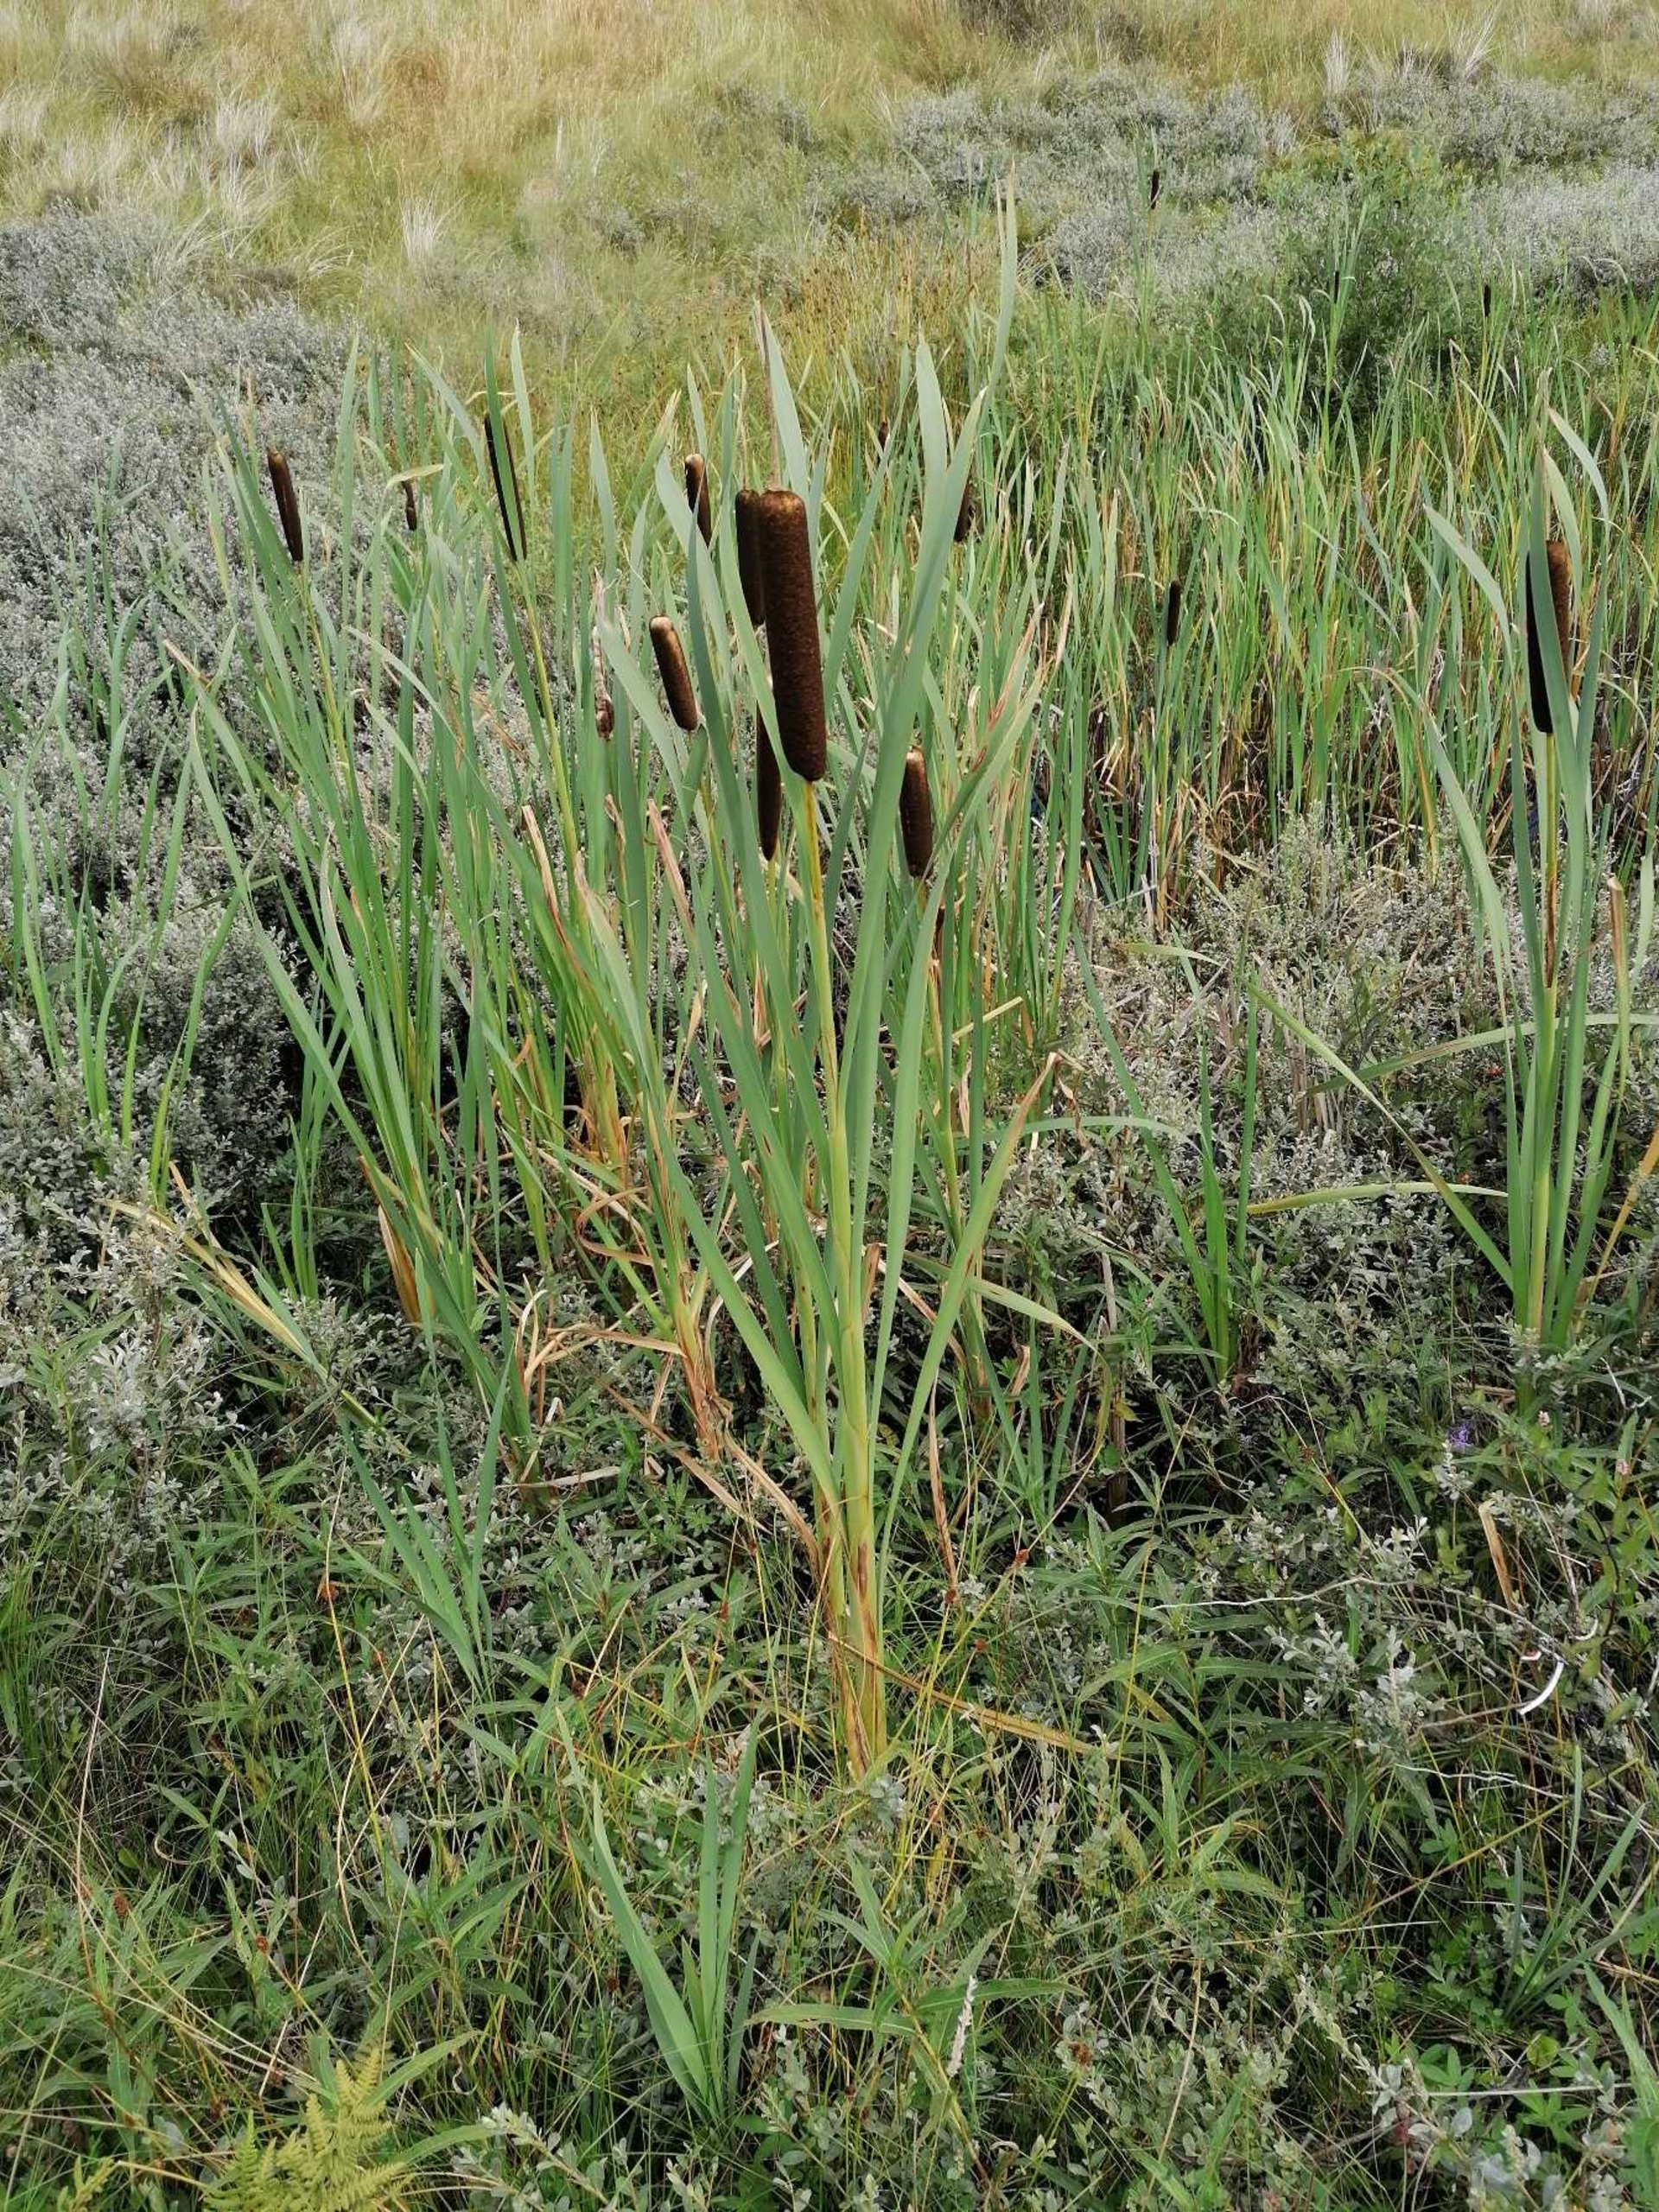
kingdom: Plantae
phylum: Tracheophyta
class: Liliopsida
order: Poales
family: Typhaceae
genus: Typha
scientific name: Typha latifolia
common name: Bredbladet dunhammer
